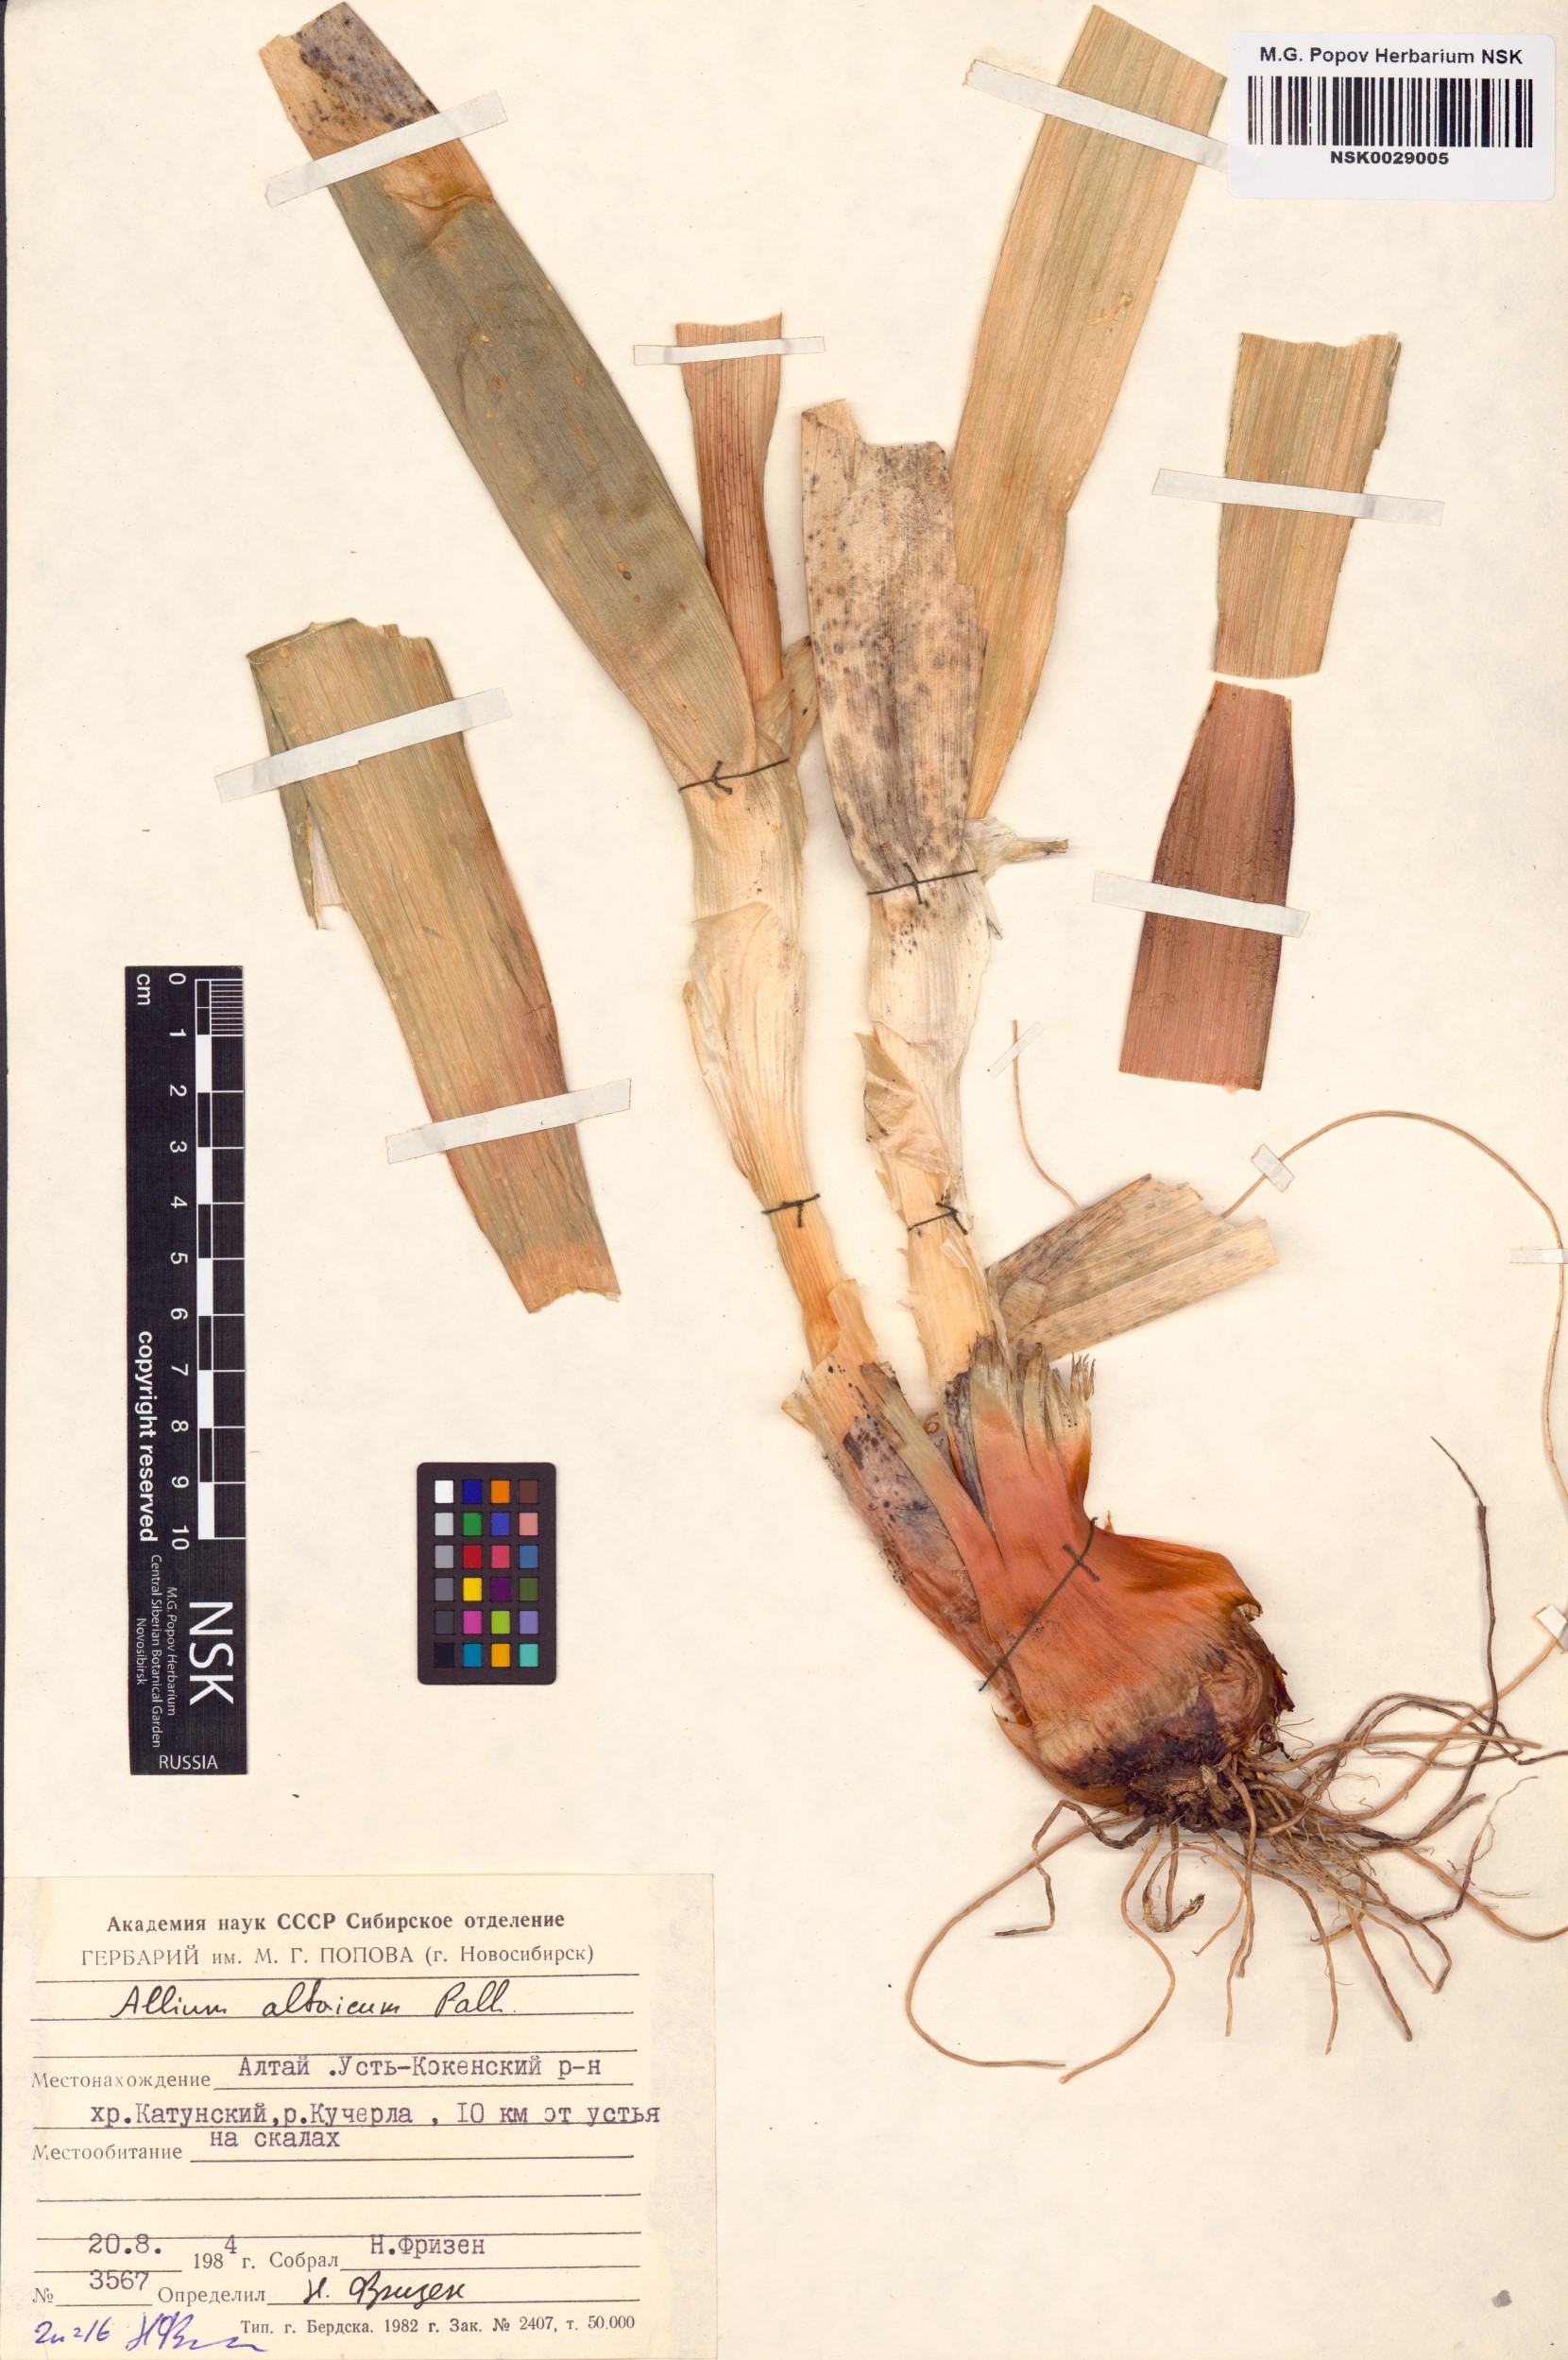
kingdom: Plantae
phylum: Tracheophyta
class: Liliopsida
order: Asparagales
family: Amaryllidaceae
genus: Allium
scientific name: Allium altaicum
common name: Altai onion
